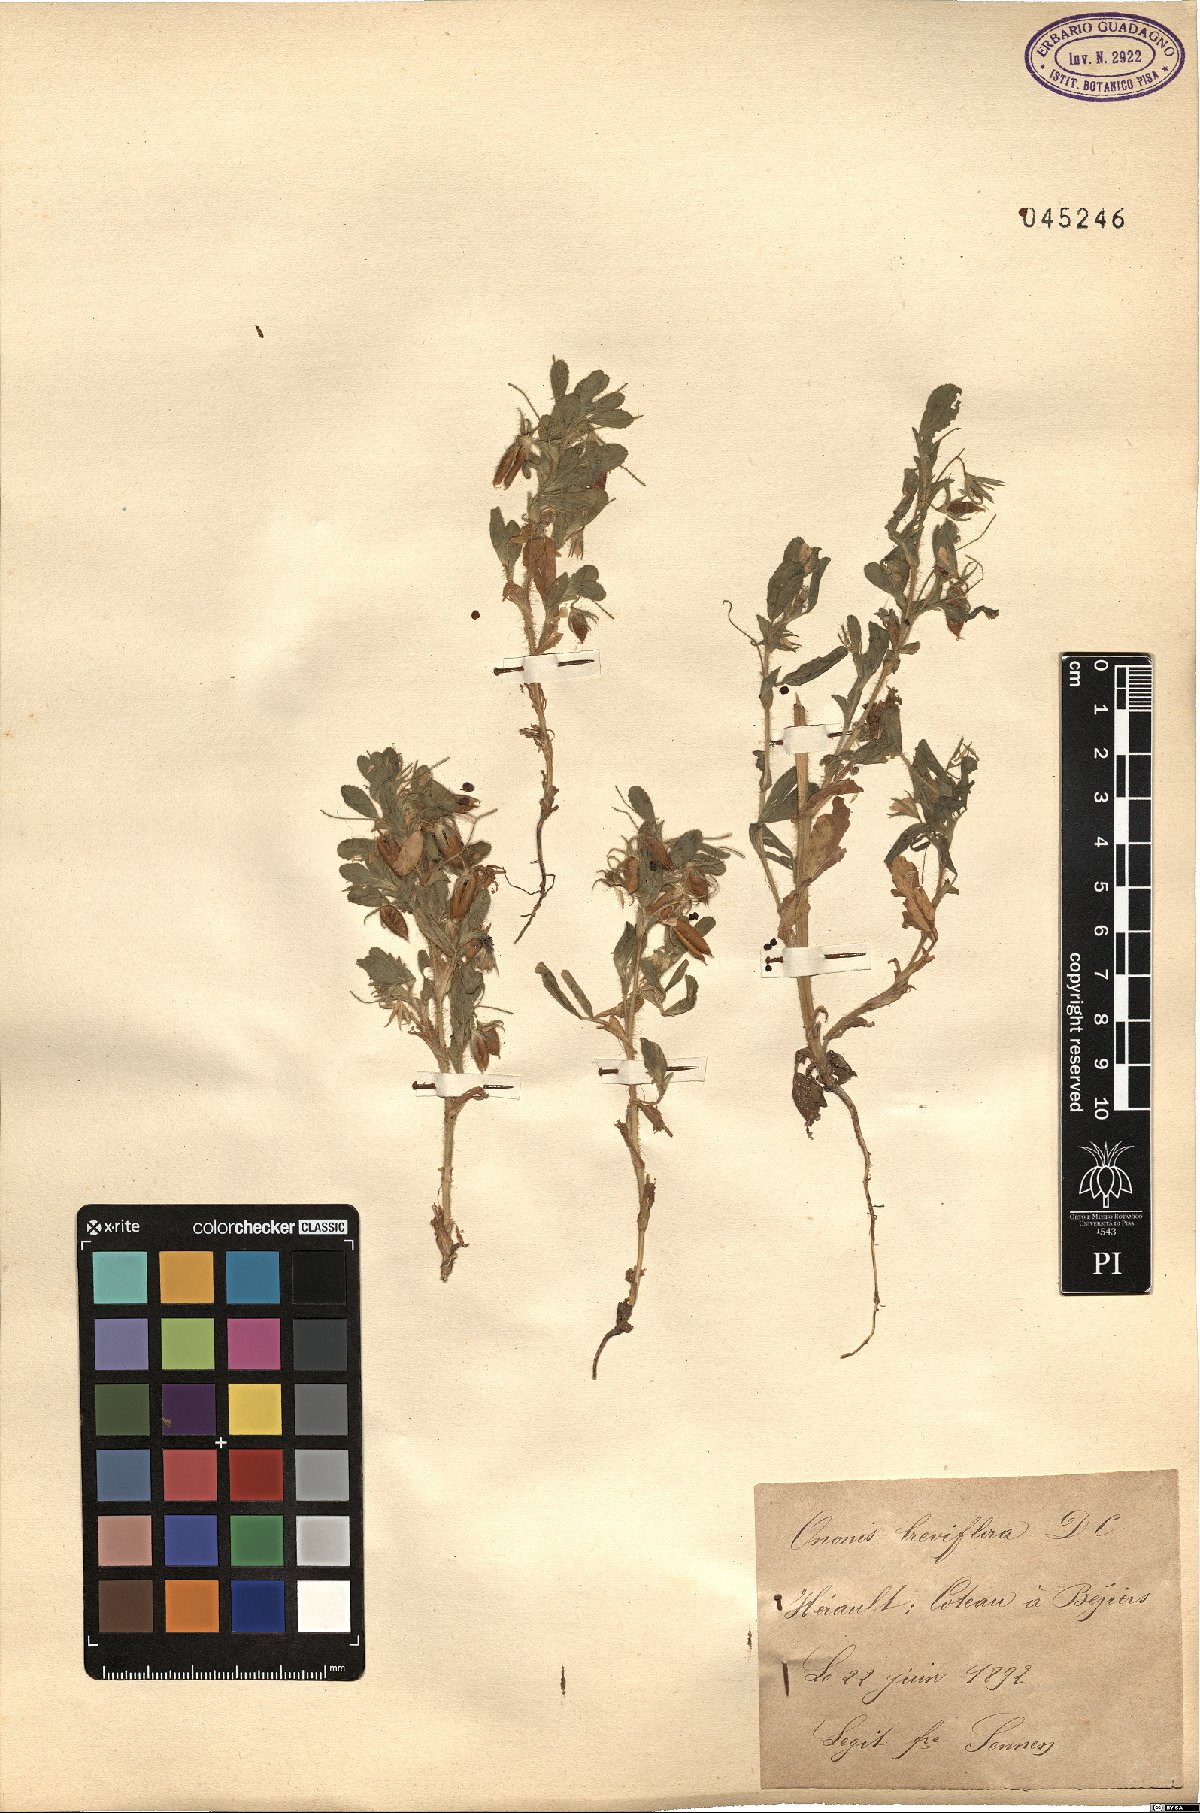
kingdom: Plantae
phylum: Tracheophyta
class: Magnoliopsida
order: Fabales
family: Fabaceae
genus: Ononis
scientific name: Ononis viscosa
